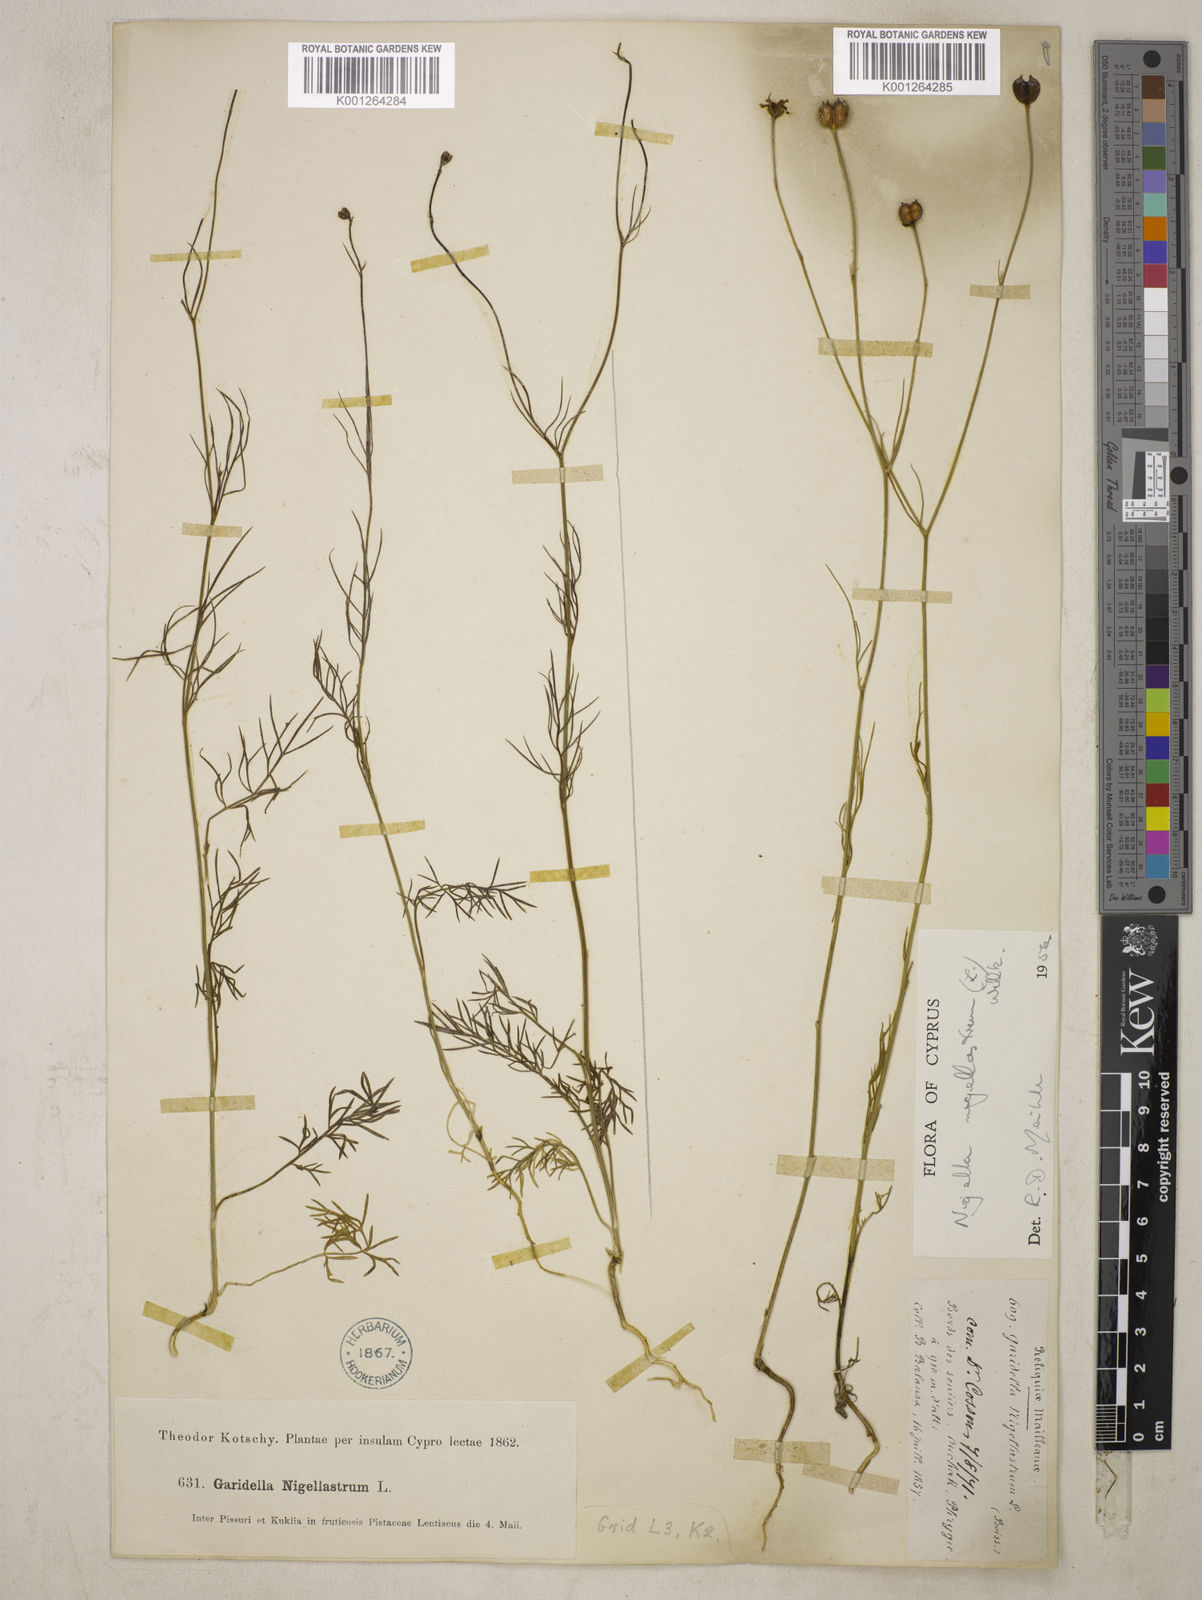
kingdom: Plantae
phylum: Tracheophyta
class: Magnoliopsida
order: Ranunculales
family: Ranunculaceae
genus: Garidella
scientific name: Garidella nigellastrum
